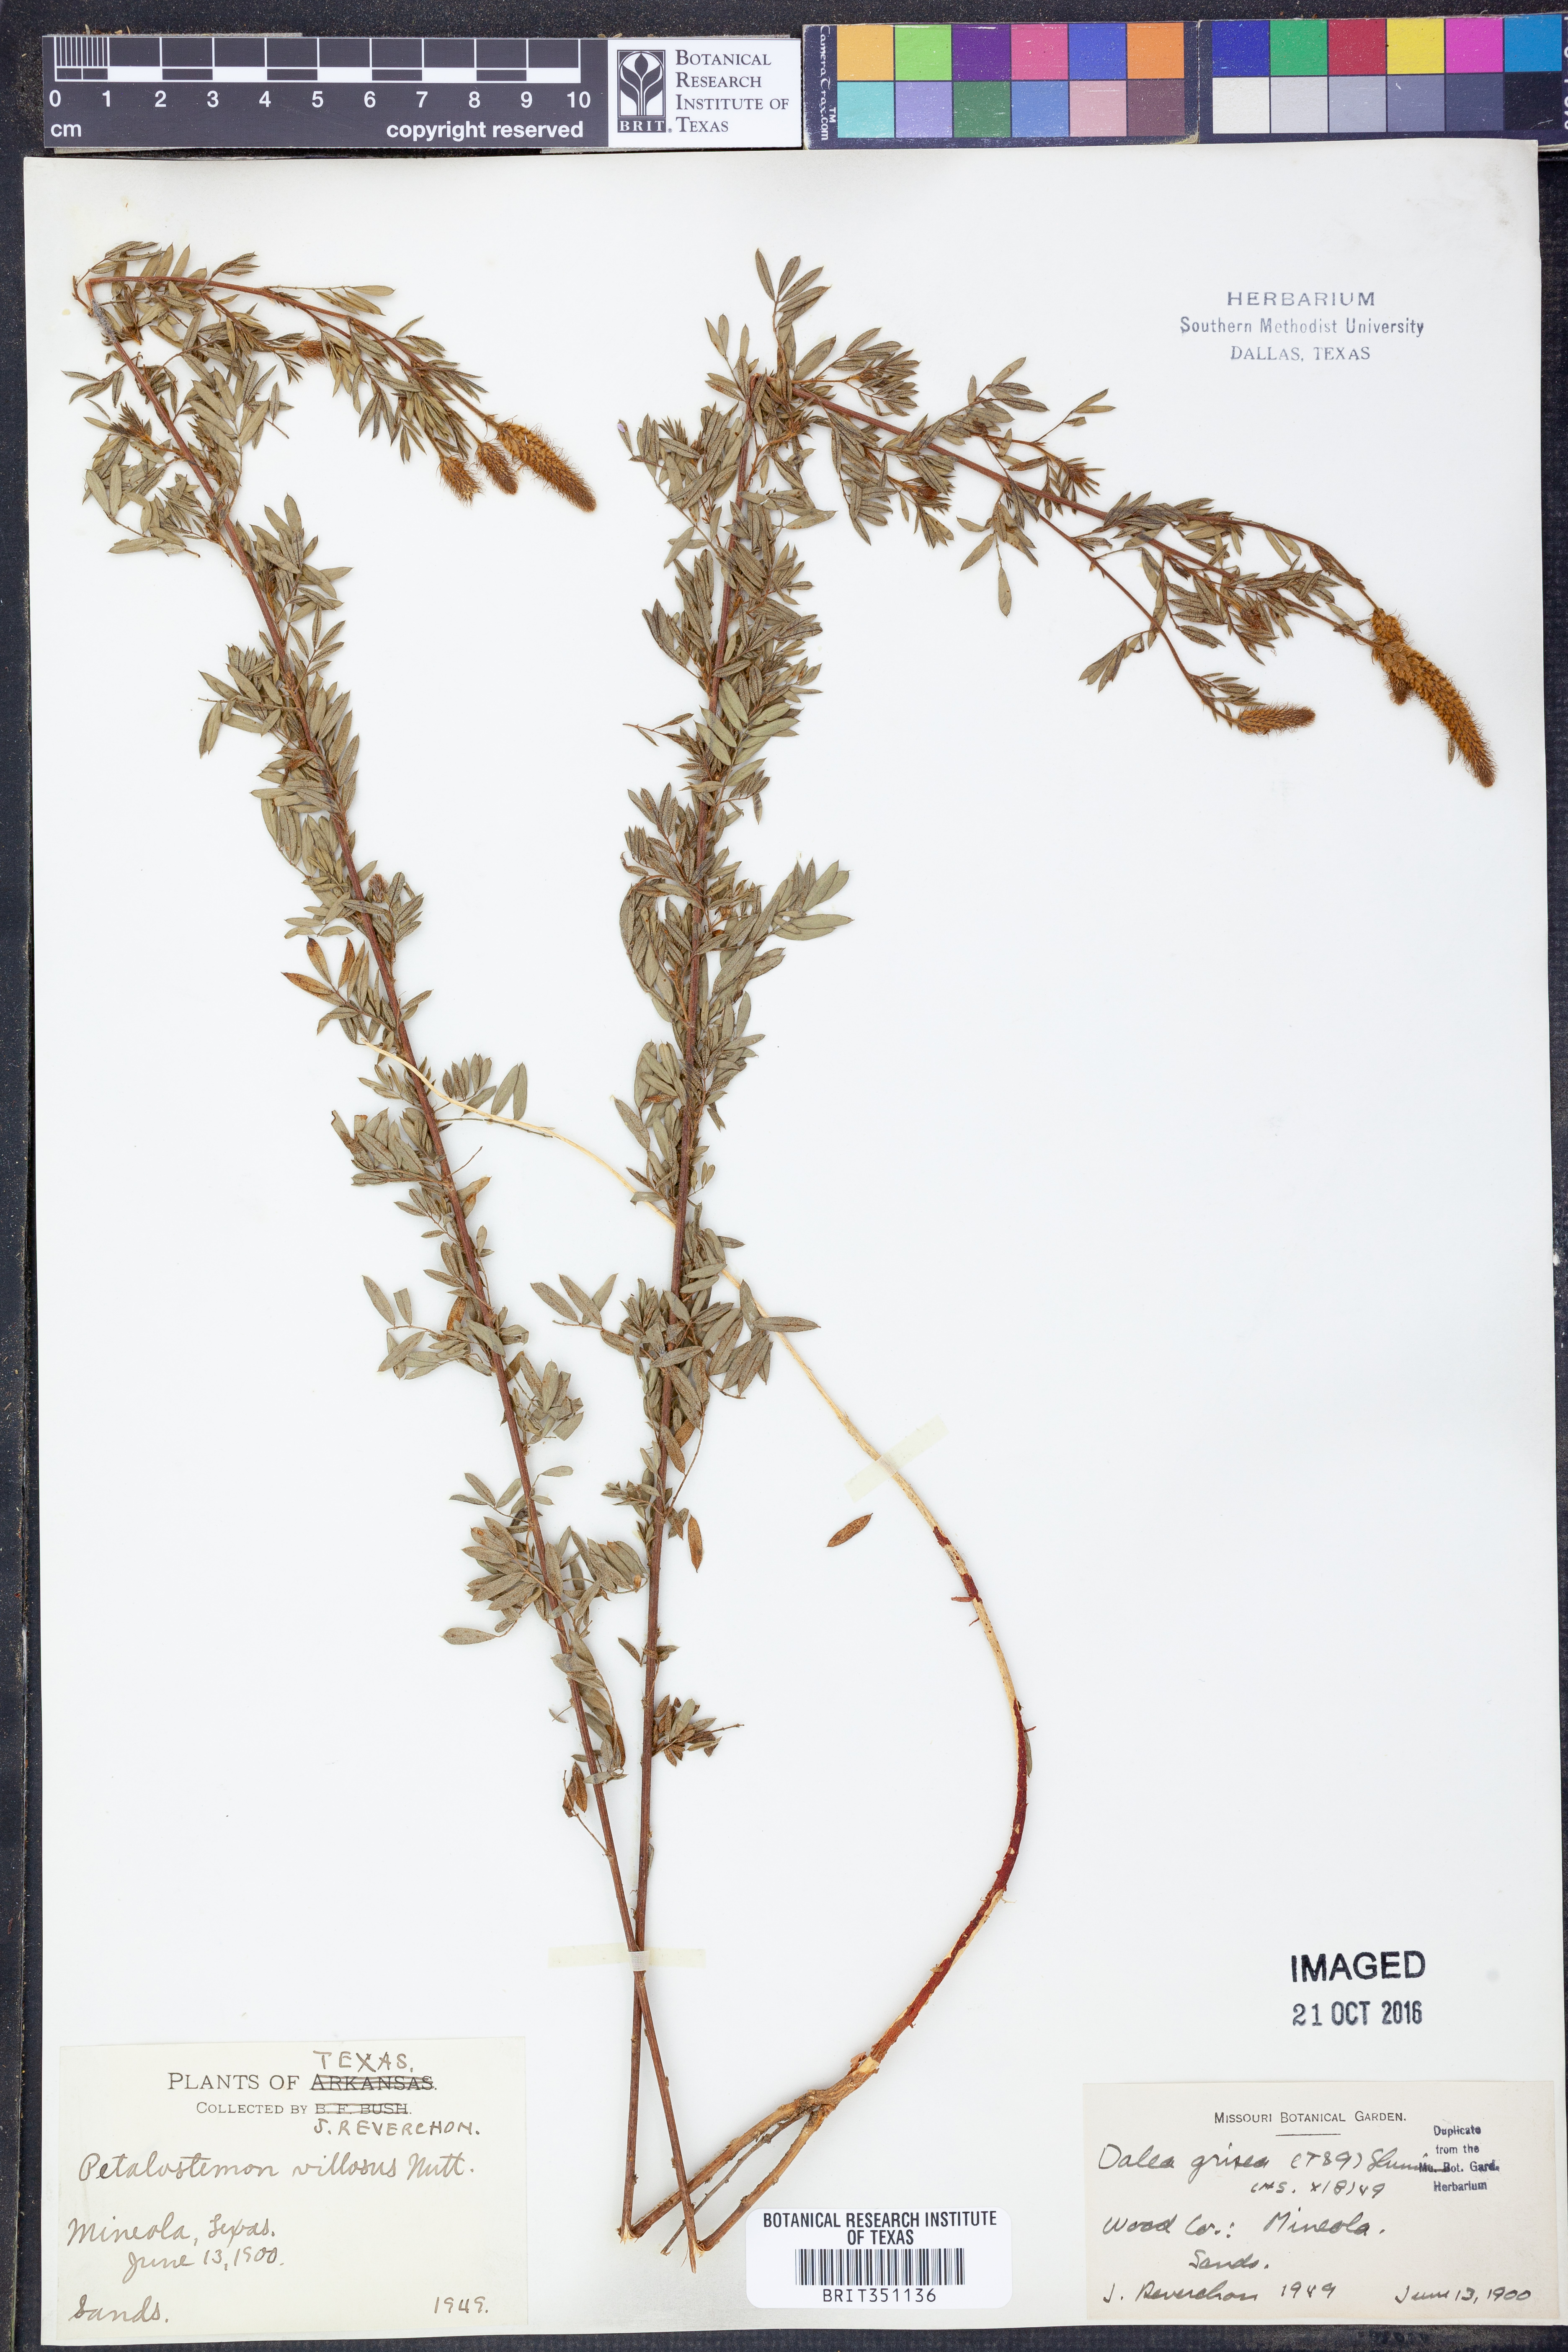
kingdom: Plantae
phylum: Tracheophyta
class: Magnoliopsida
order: Fabales
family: Fabaceae
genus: Dalea
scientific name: Dalea villosa
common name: Silky prairie-clover
